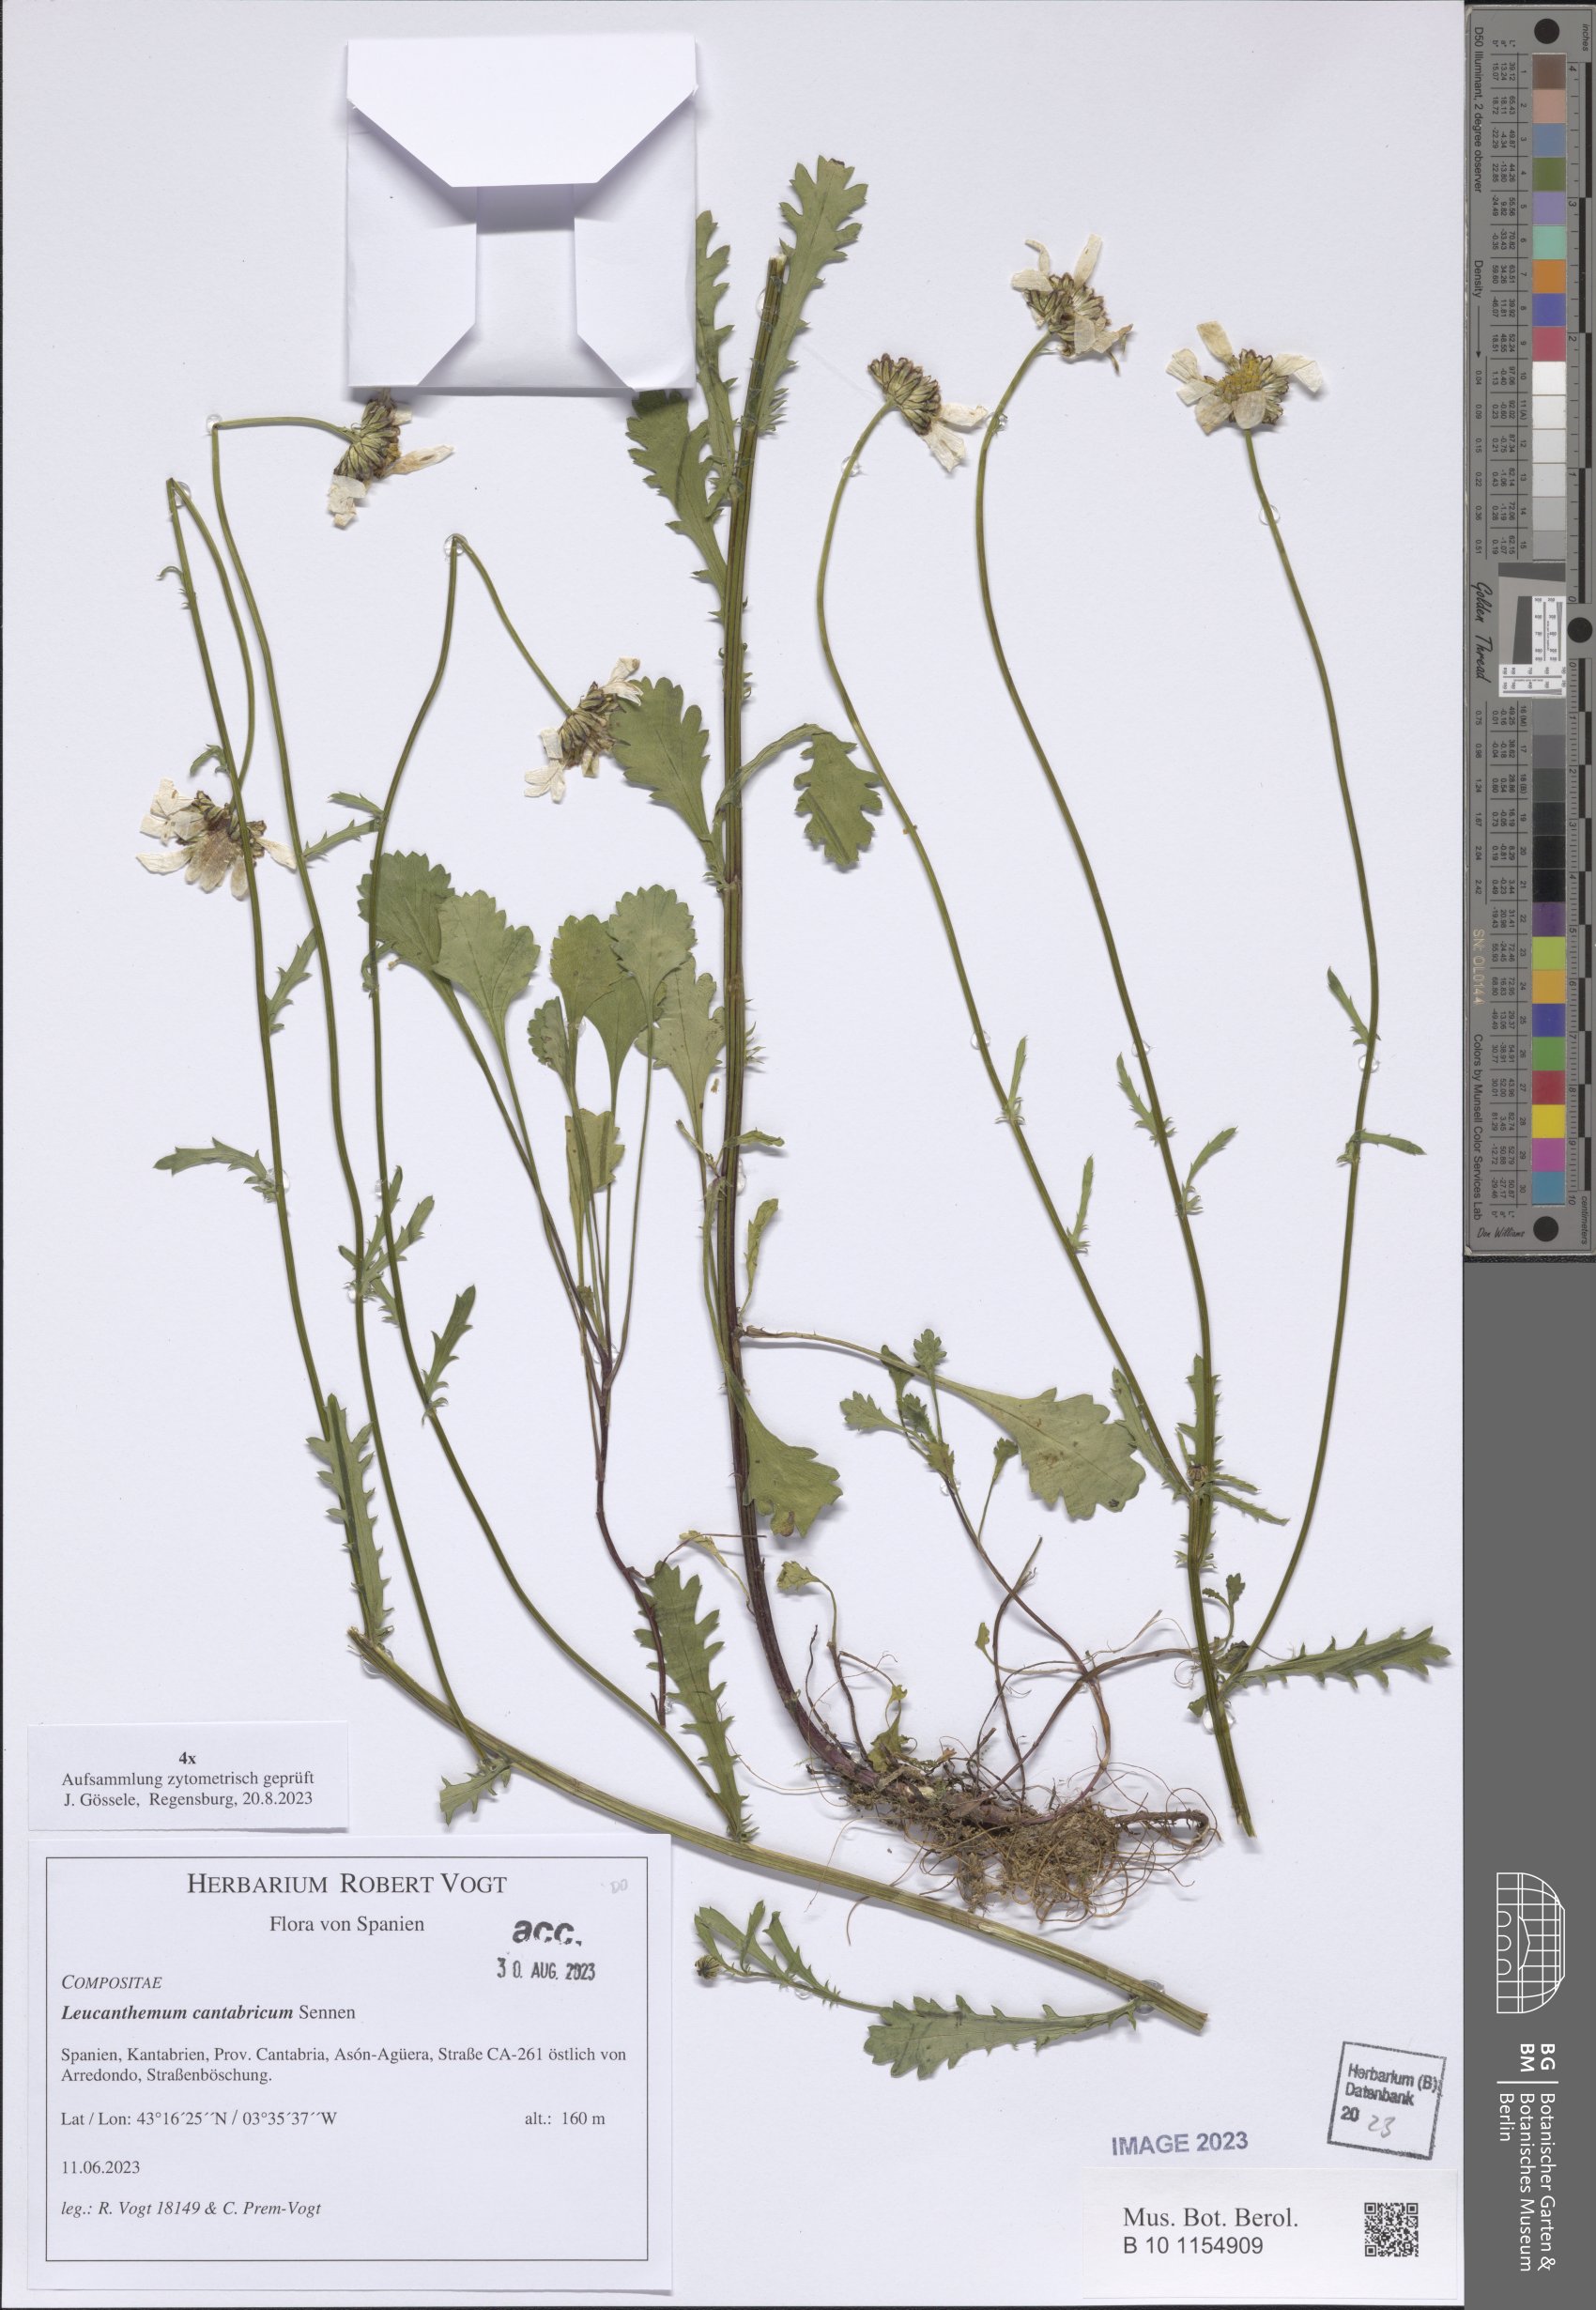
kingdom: Plantae
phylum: Tracheophyta
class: Magnoliopsida
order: Asterales
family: Asteraceae
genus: Leucanthemum
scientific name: Leucanthemum cantabricum
